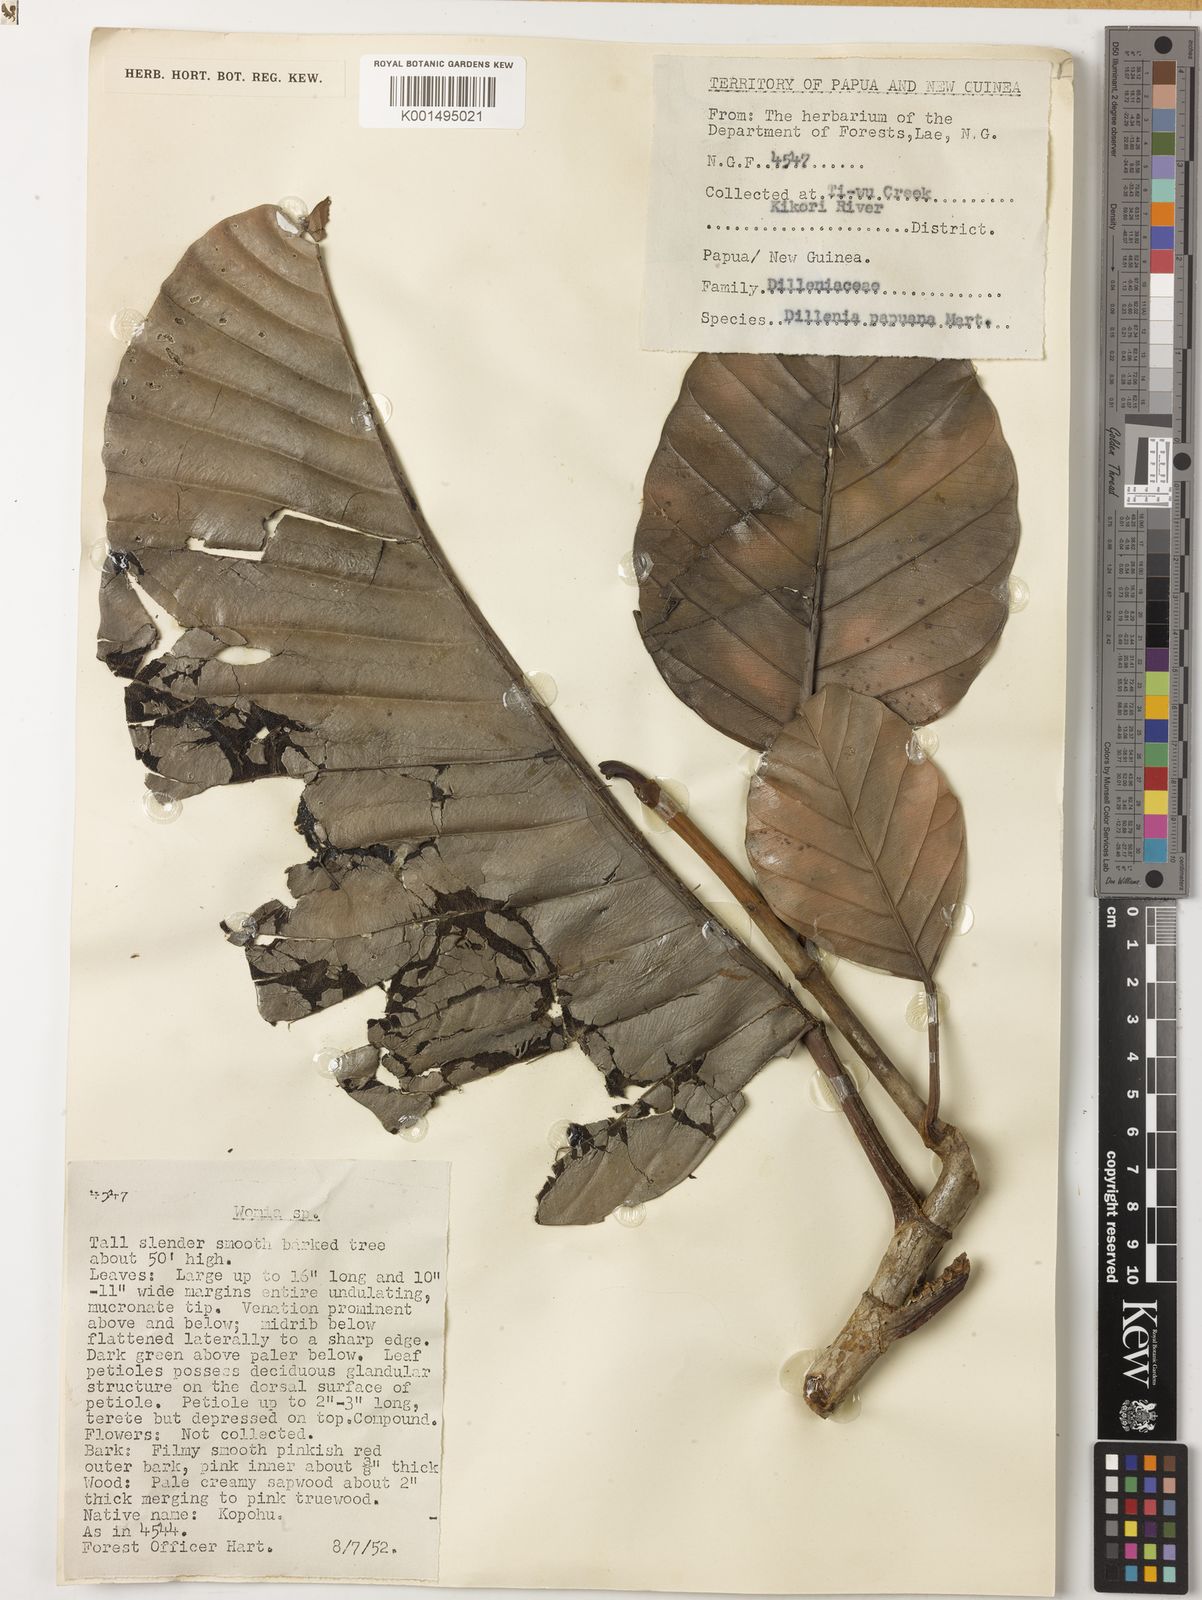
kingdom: Plantae
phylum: Tracheophyta
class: Magnoliopsida
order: Dilleniales
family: Dilleniaceae
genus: Dillenia
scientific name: Dillenia papuana
